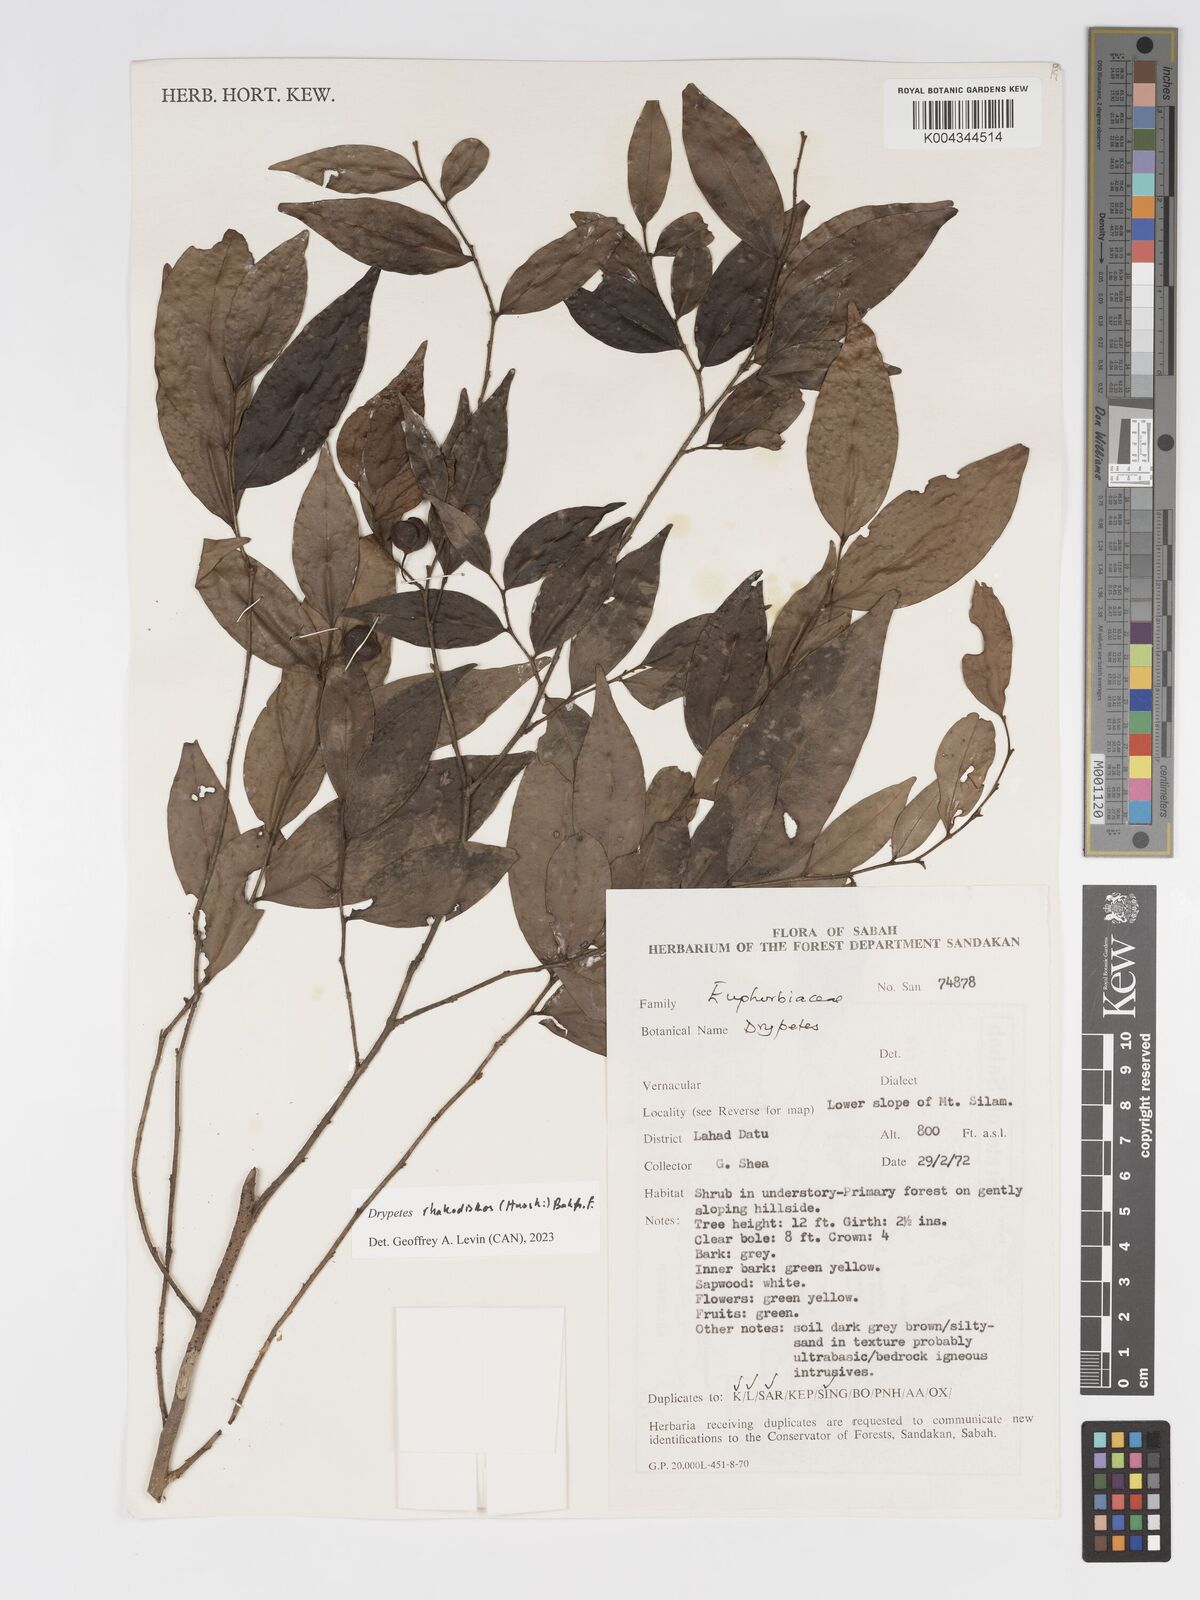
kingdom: Plantae
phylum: Tracheophyta
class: Magnoliopsida
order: Malpighiales
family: Putranjivaceae
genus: Drypetes
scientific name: Drypetes rhakodiskos
